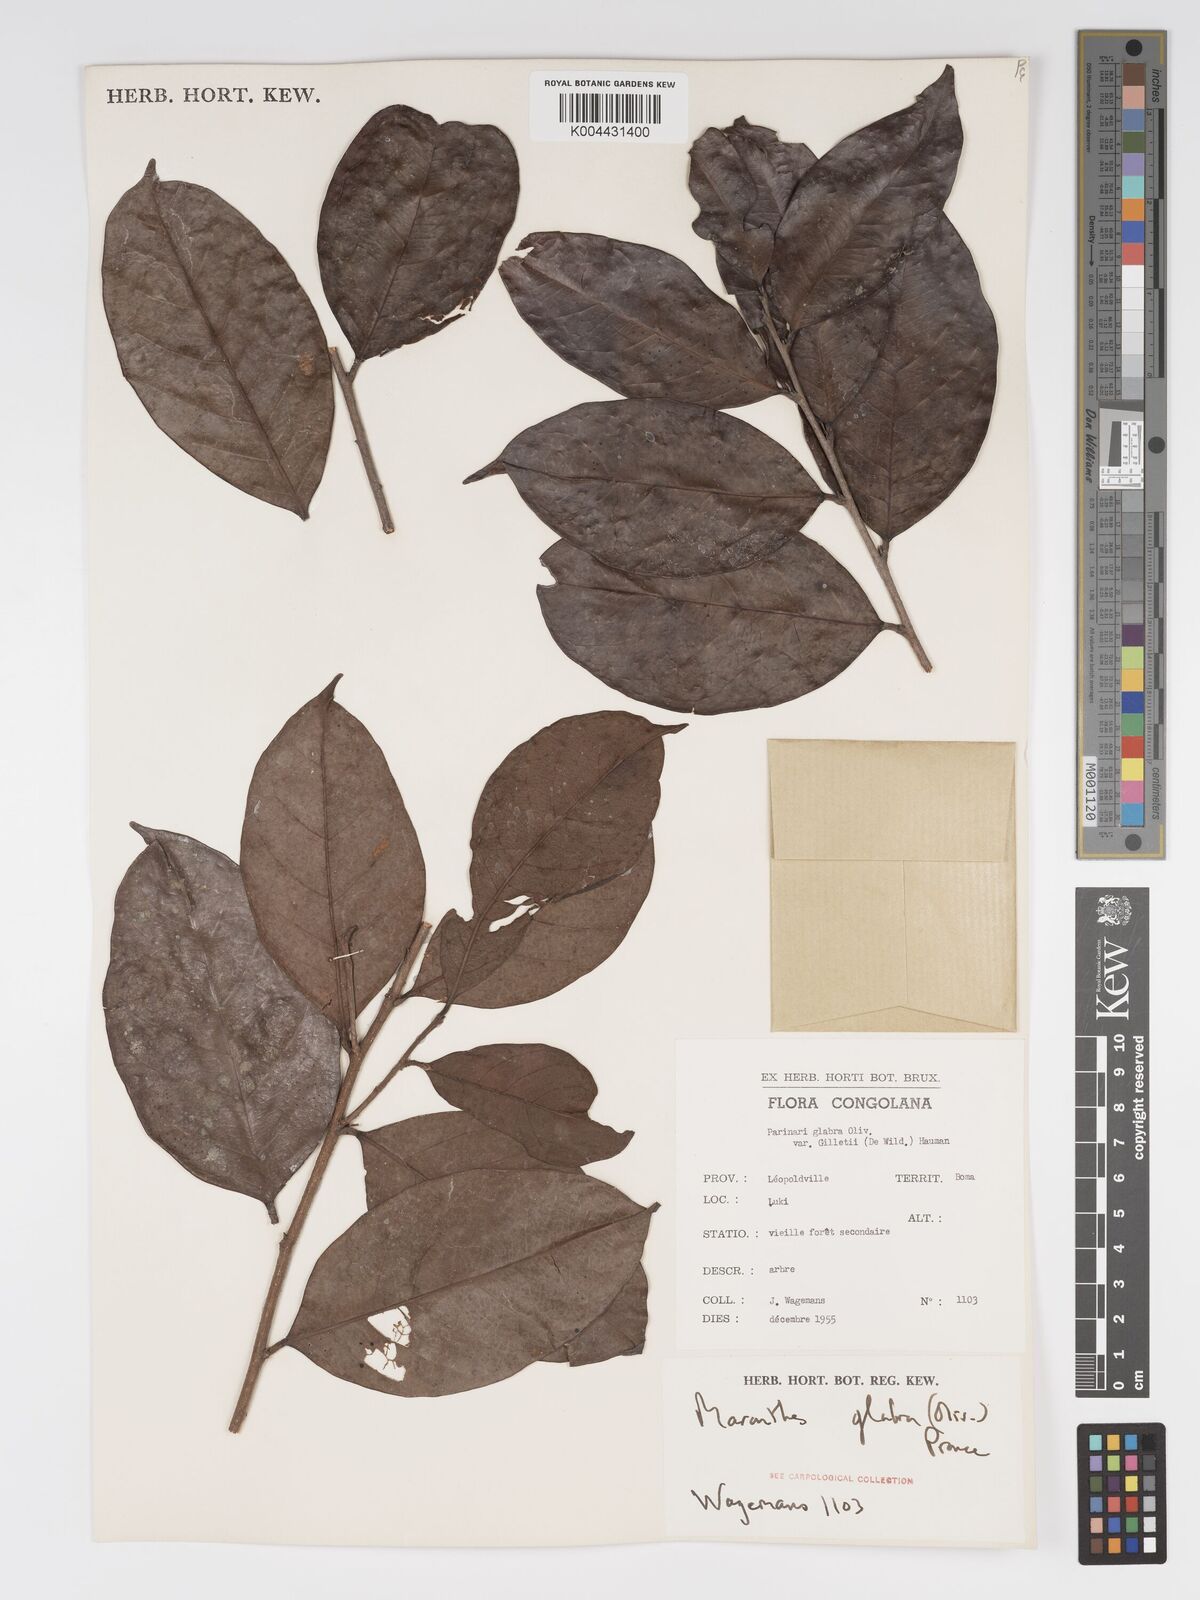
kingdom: Plantae
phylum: Tracheophyta
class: Magnoliopsida
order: Malpighiales
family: Chrysobalanaceae
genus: Maranthes
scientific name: Maranthes glabra
